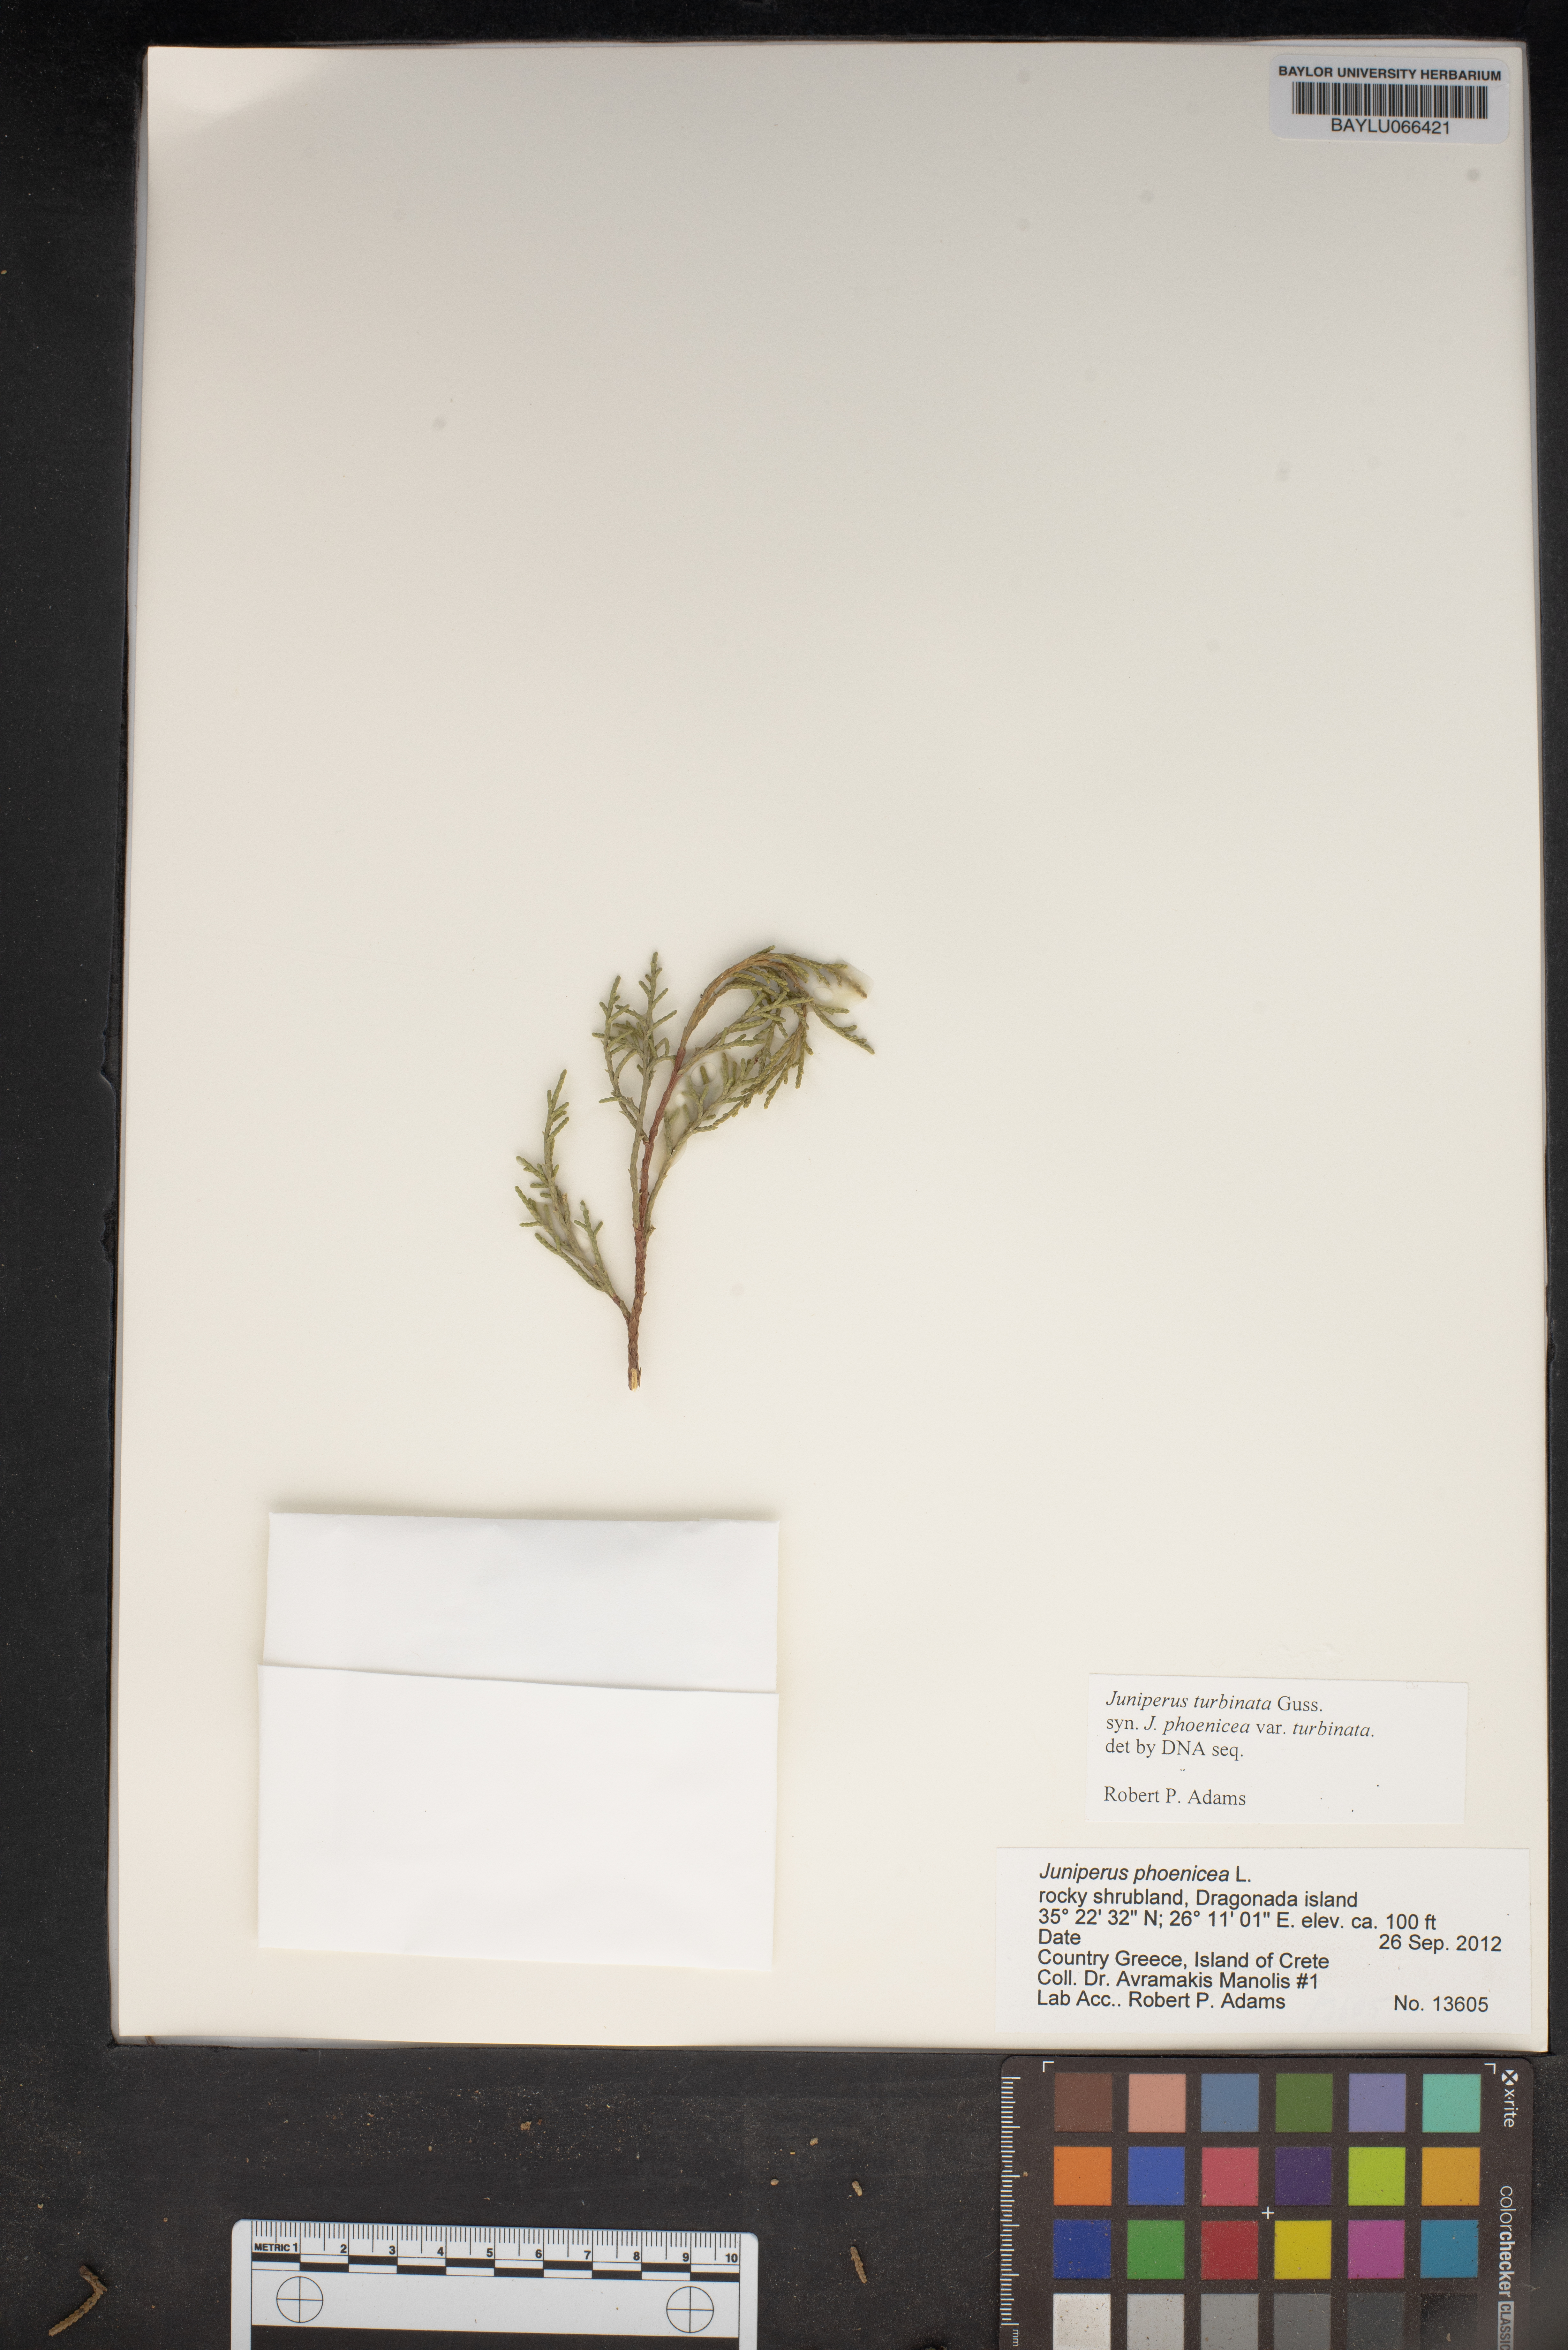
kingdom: Plantae
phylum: Tracheophyta
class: Pinopsida
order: Pinales
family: Cupressaceae
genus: Juniperus
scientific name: Juniperus phoenicea
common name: Phoenician juniper
